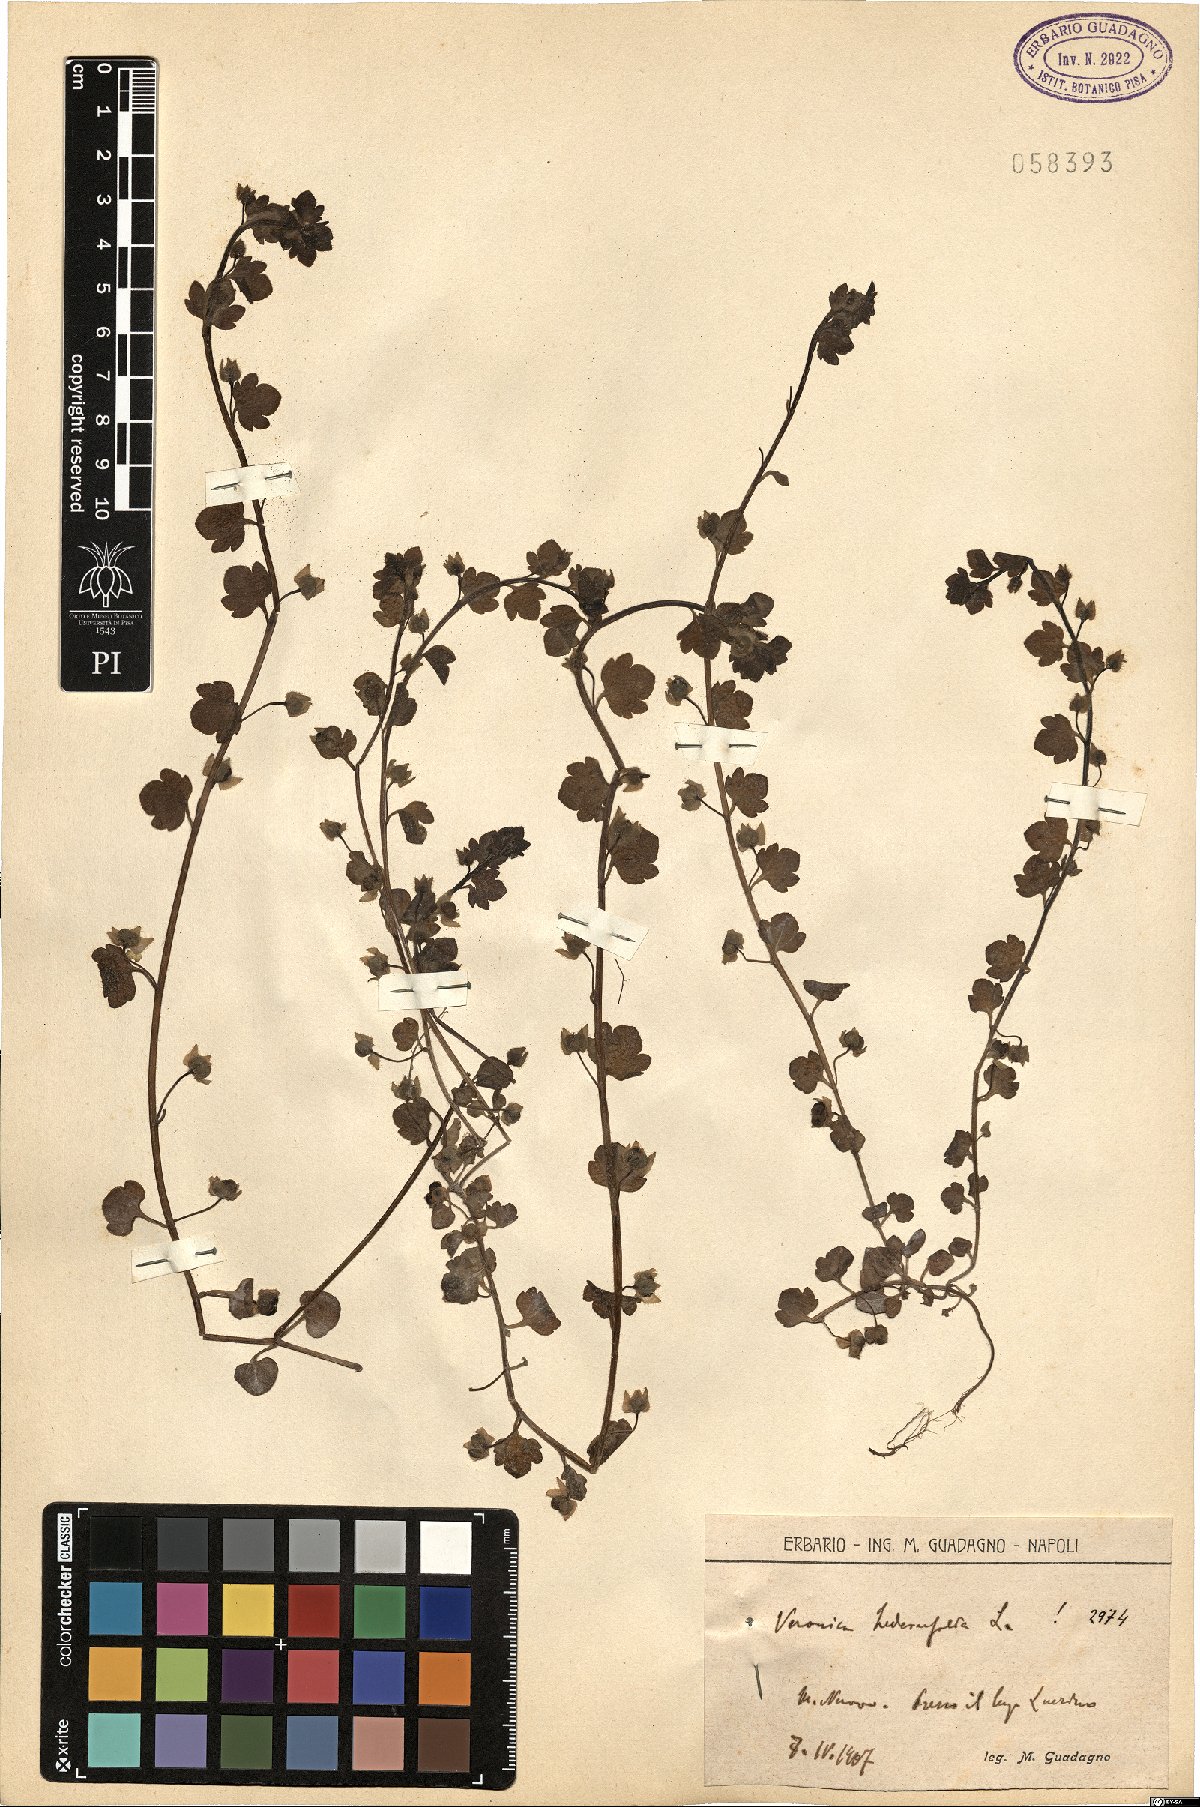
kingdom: Plantae
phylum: Tracheophyta
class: Magnoliopsida
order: Lamiales
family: Plantaginaceae
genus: Veronica
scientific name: Veronica hederifolia
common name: Ivy-leaved speedwell
